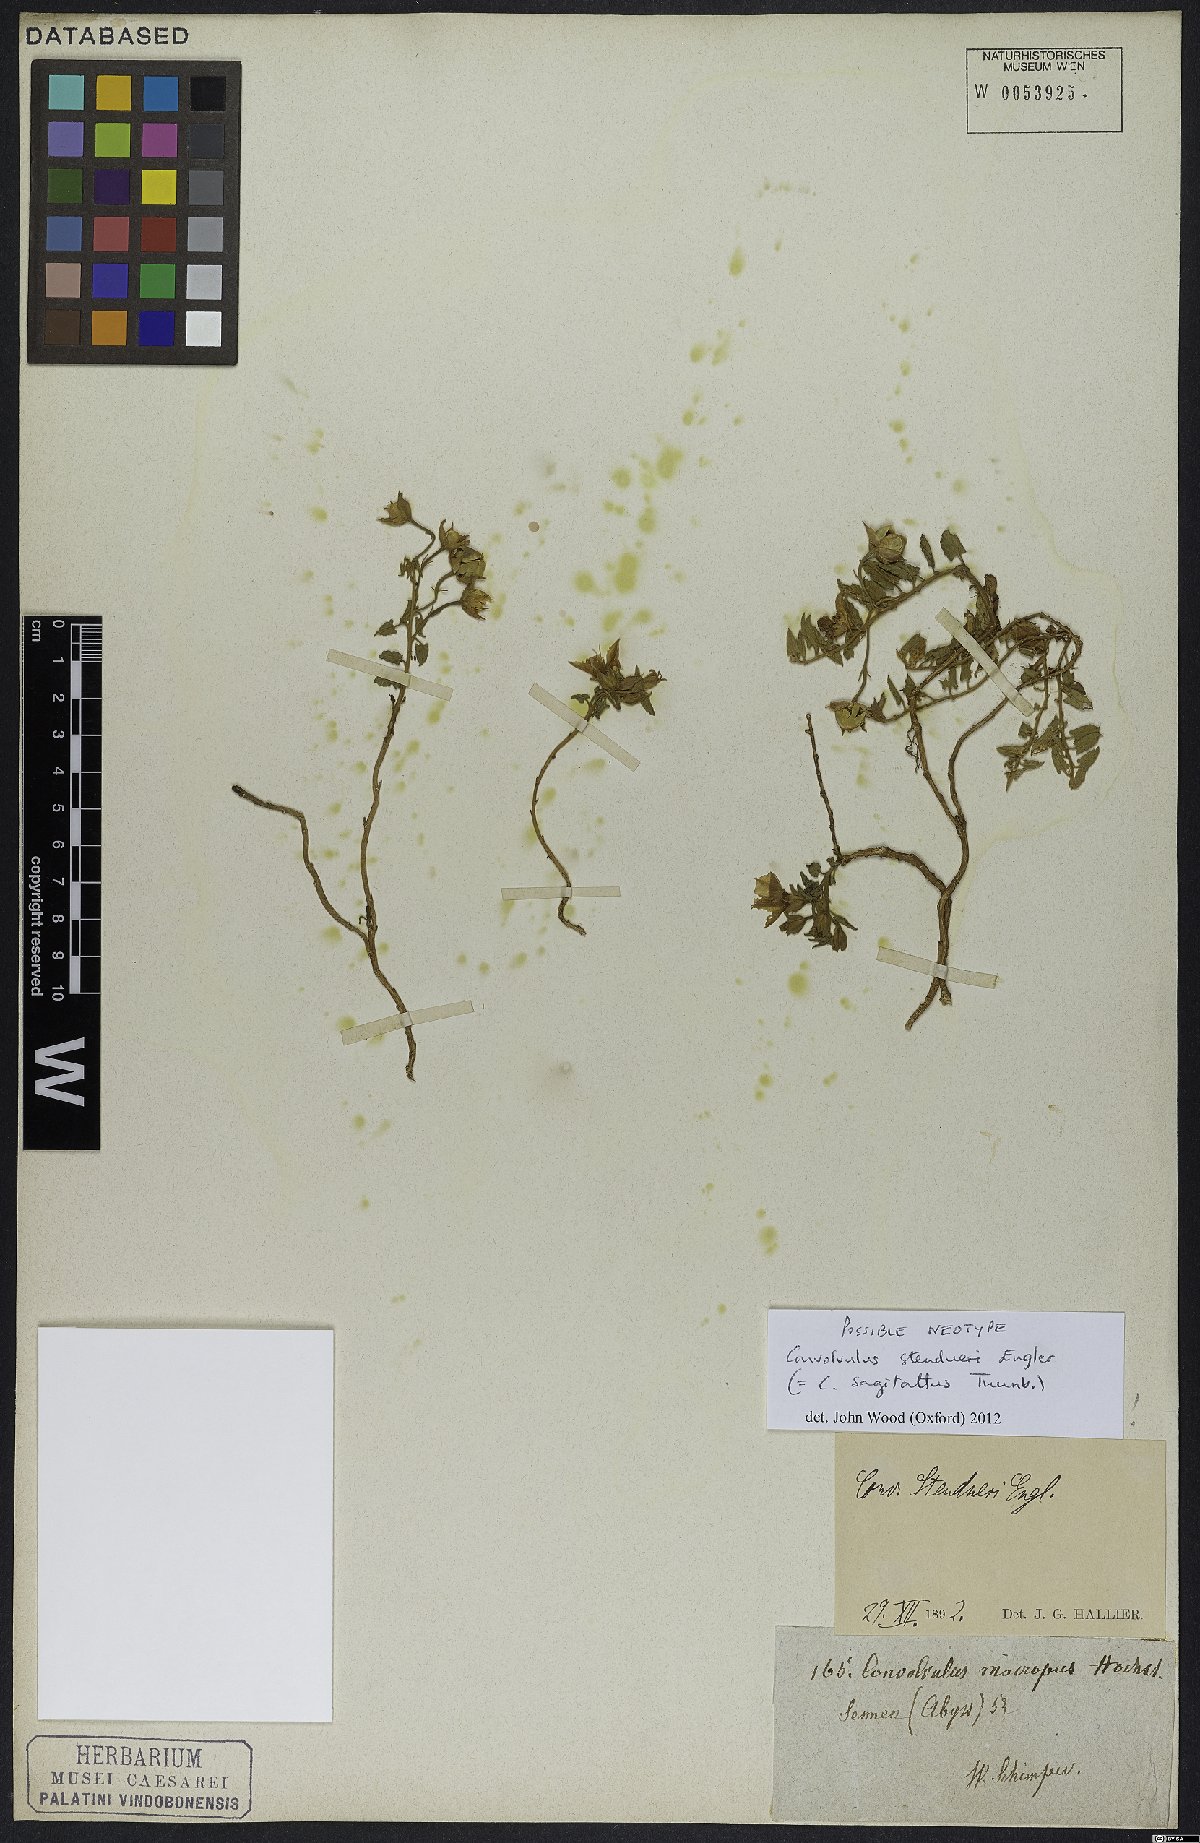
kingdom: Plantae
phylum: Tracheophyta
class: Magnoliopsida
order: Solanales
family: Convolvulaceae
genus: Convolvulus
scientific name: Convolvulus sagittatus
